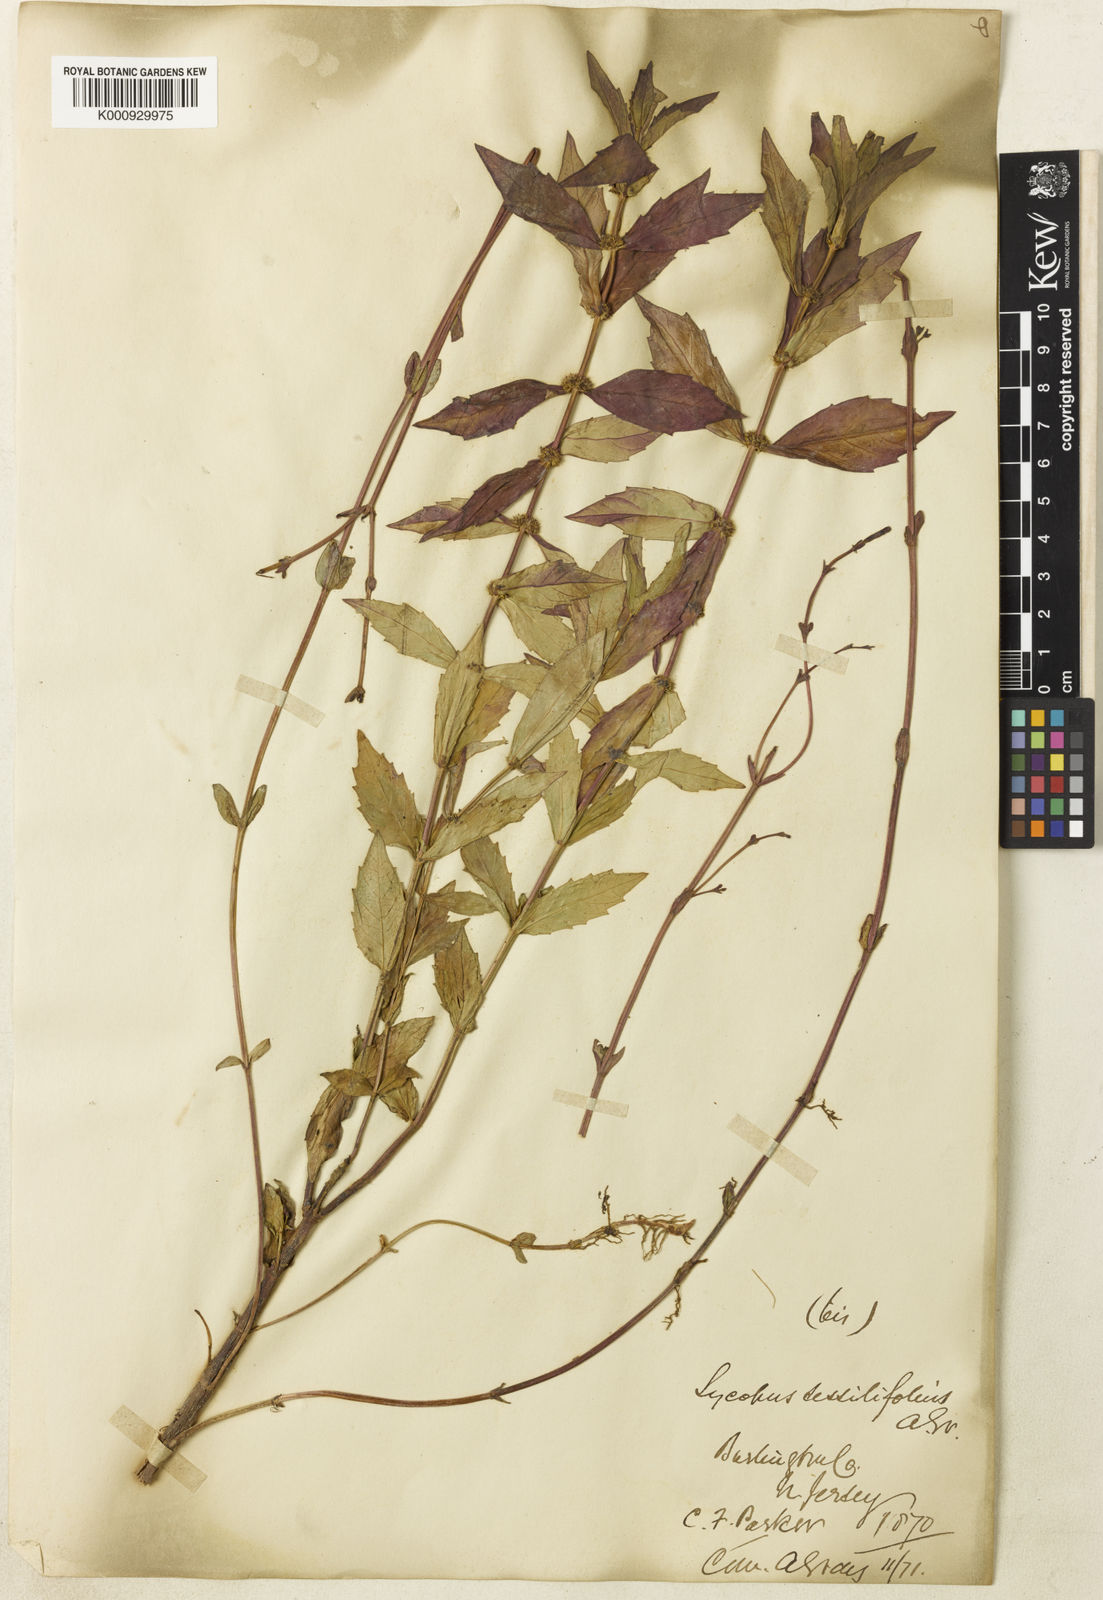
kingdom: Plantae
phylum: Tracheophyta
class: Magnoliopsida
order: Lamiales
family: Lamiaceae
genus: Lycopus
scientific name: Lycopus amplectens
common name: Clasping water horehound
